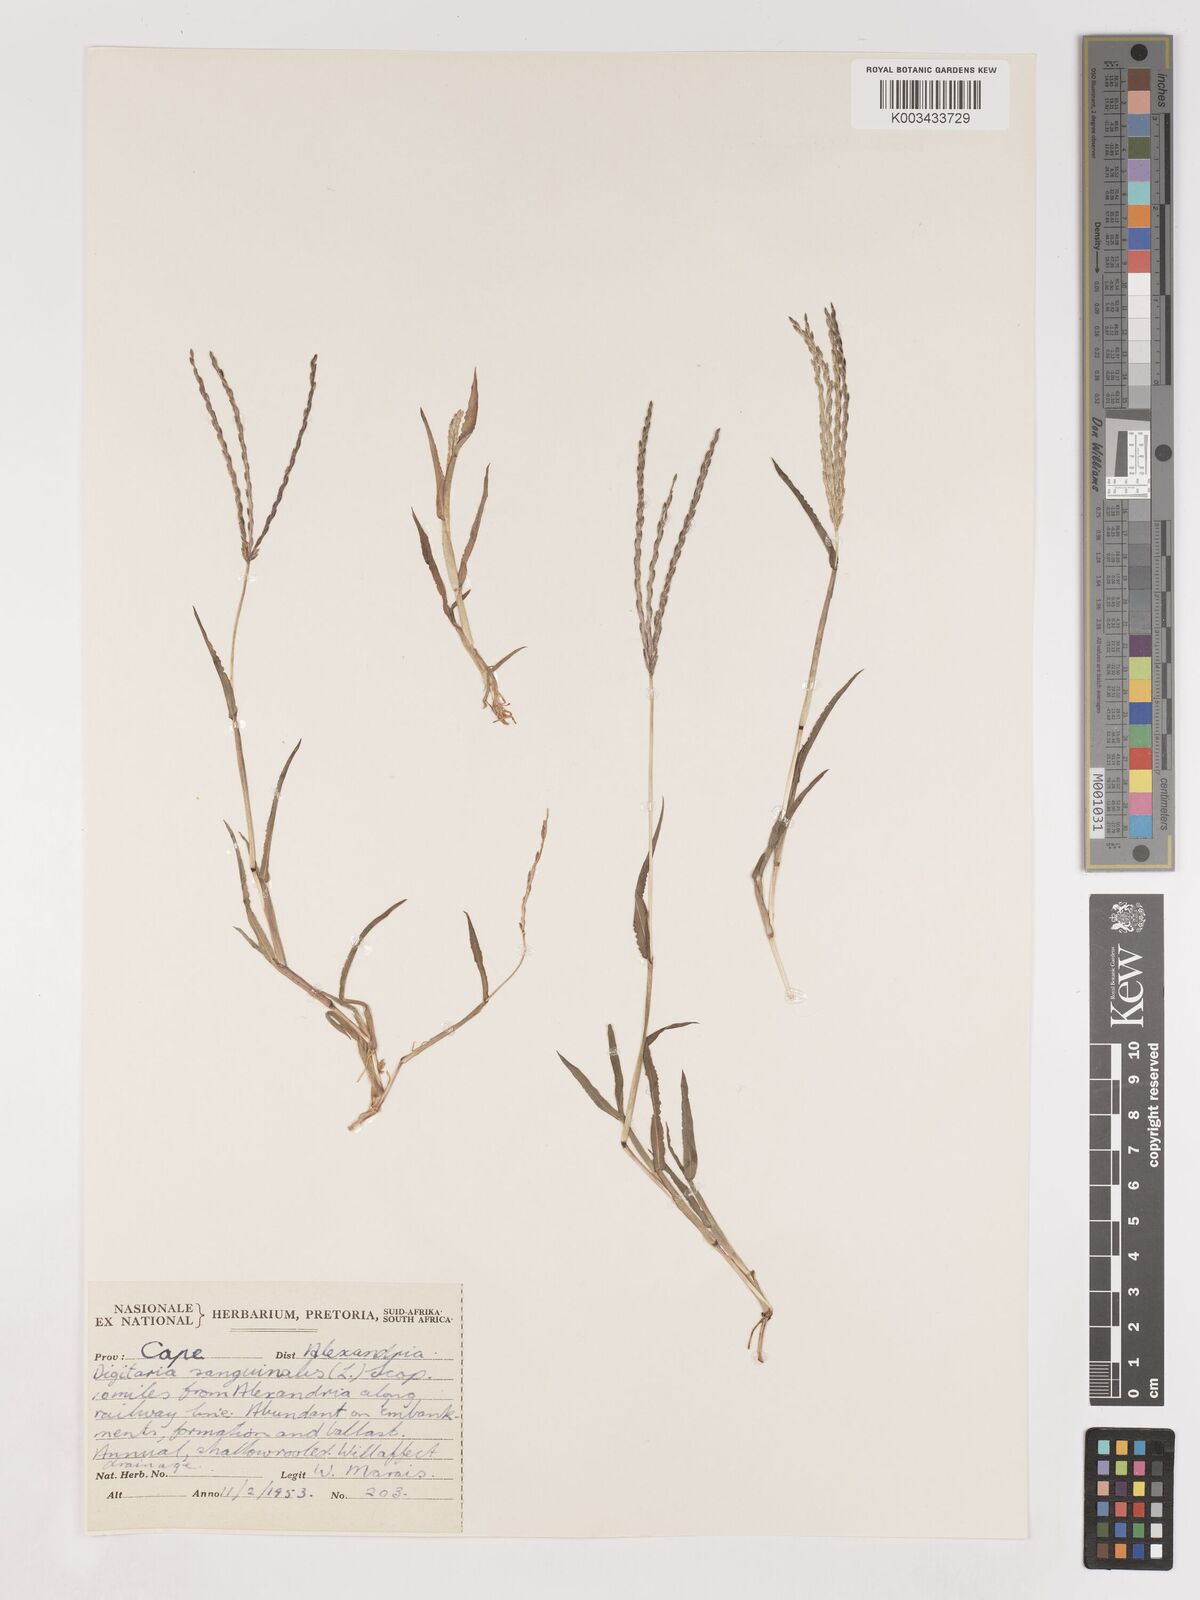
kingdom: Plantae
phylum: Tracheophyta
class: Liliopsida
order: Poales
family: Poaceae
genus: Digitaria
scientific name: Digitaria sanguinalis
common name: Hairy crabgrass
